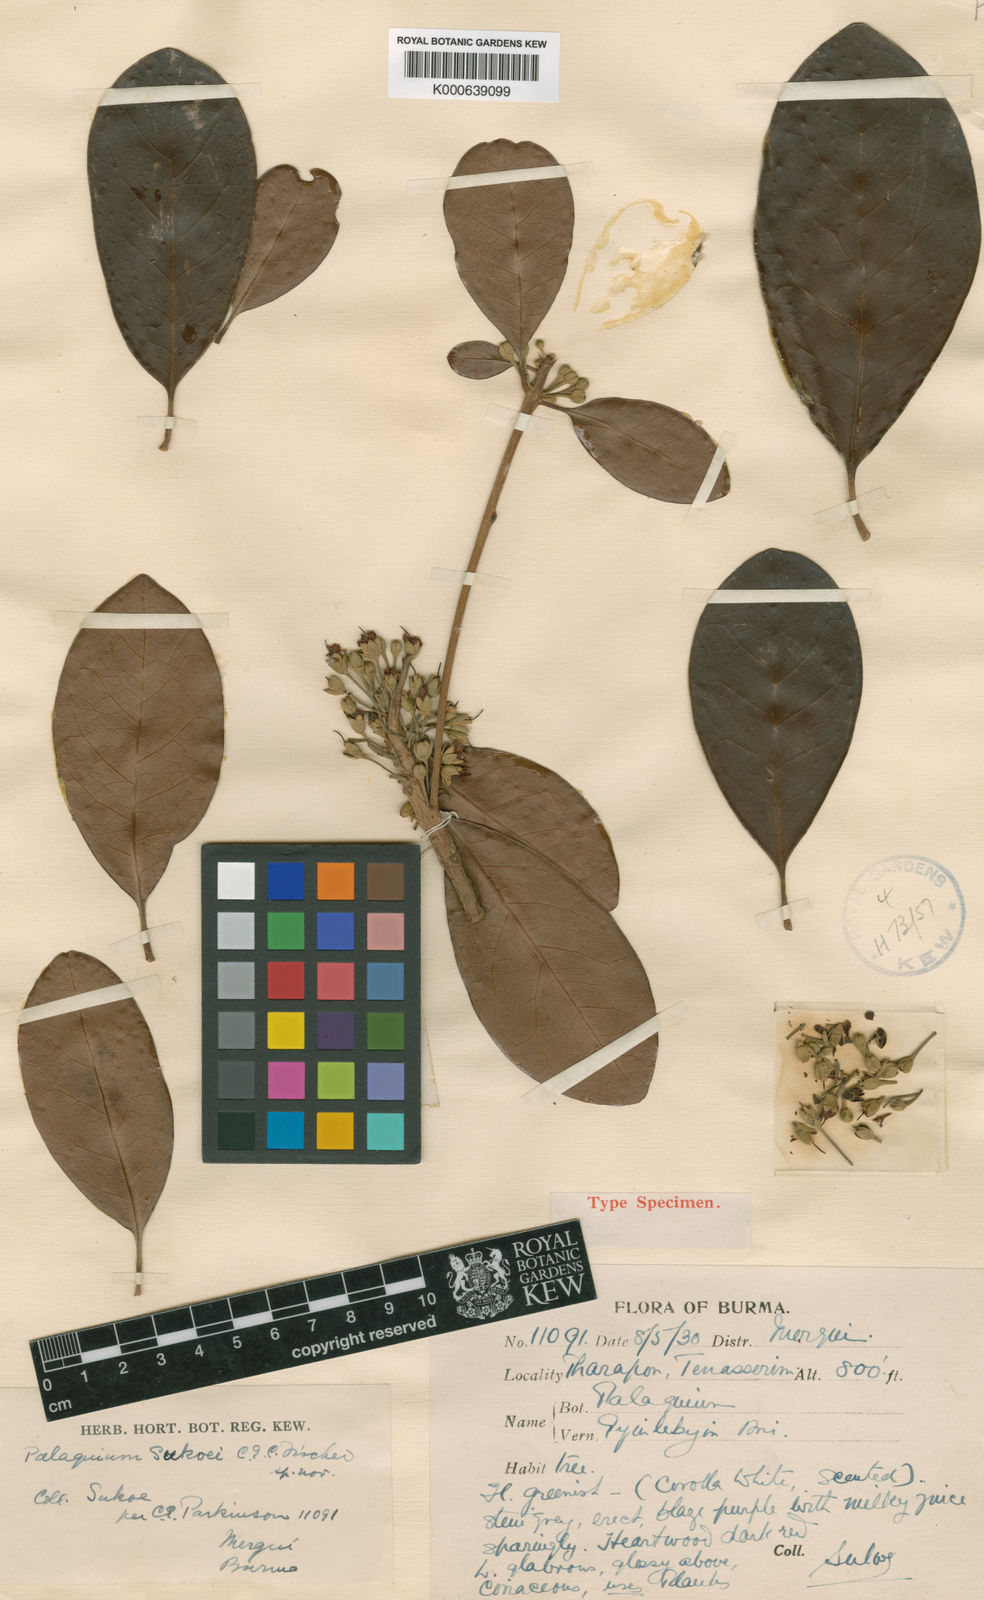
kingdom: Plantae
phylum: Tracheophyta
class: Magnoliopsida
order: Ericales
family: Sapotaceae
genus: Palaquium
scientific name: Palaquium sukoei
